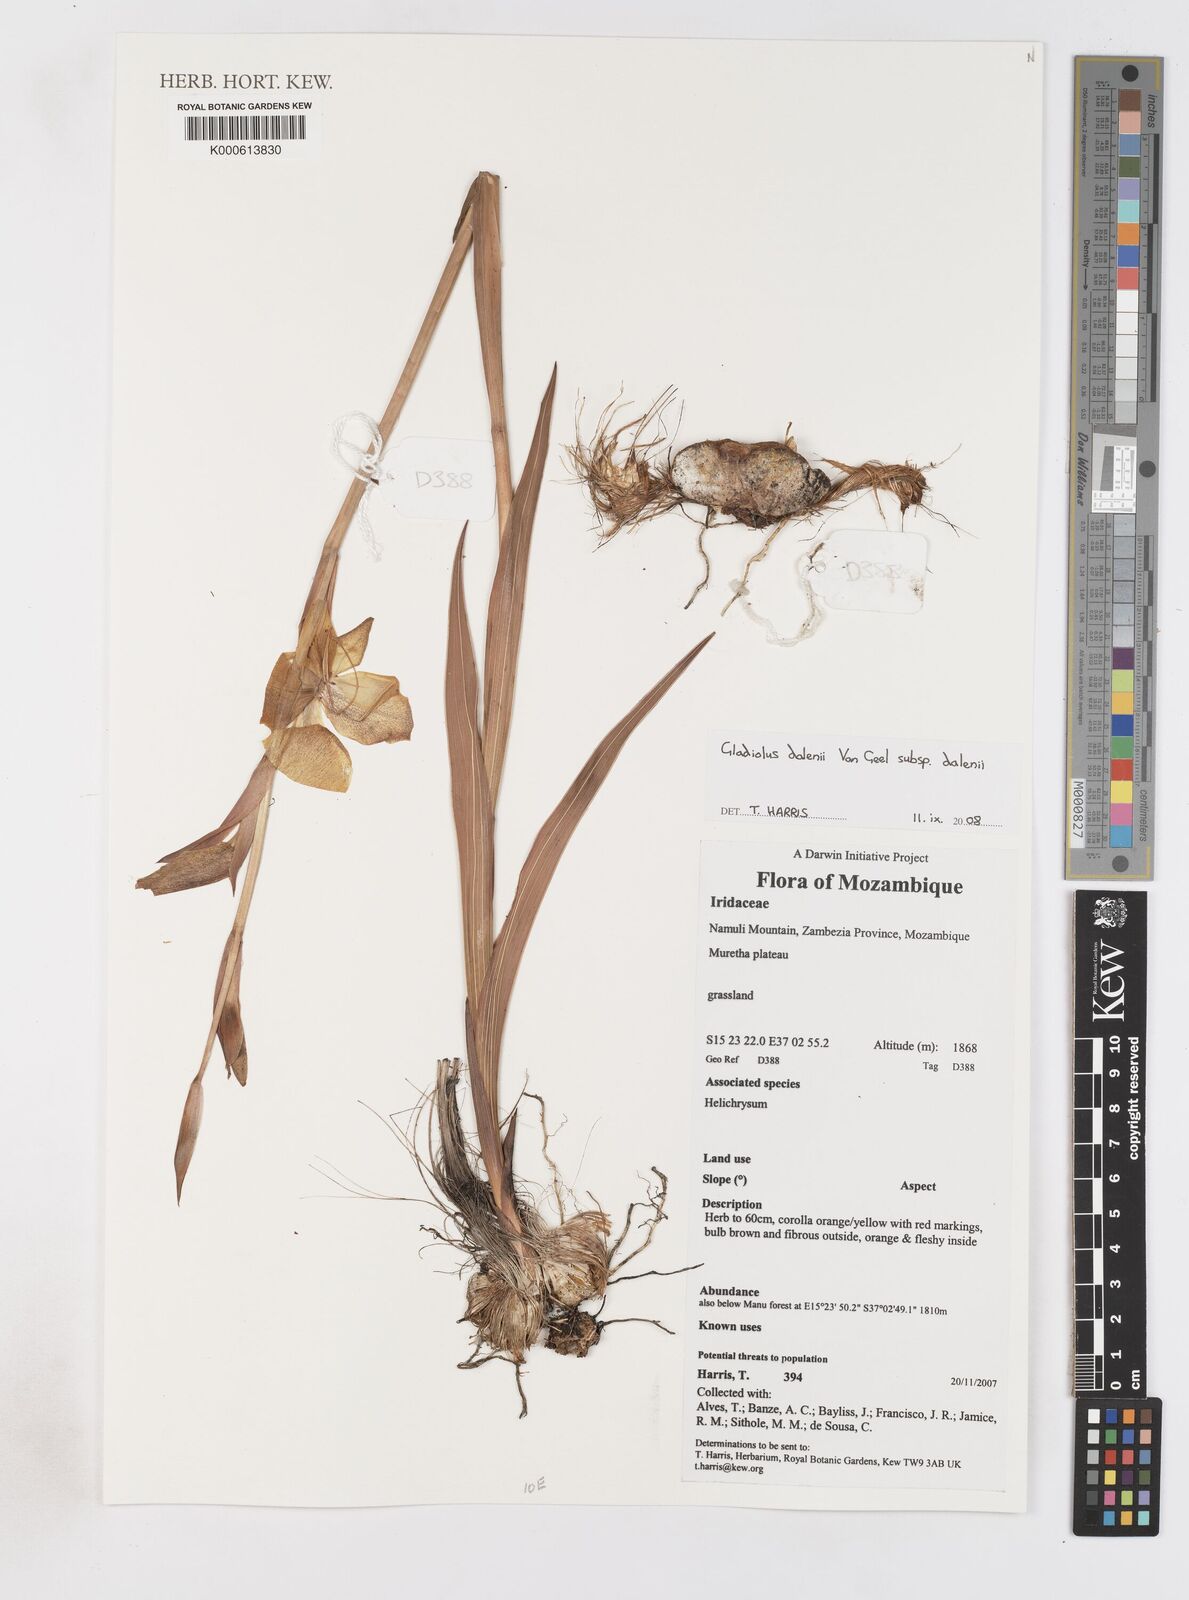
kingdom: Plantae
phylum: Tracheophyta
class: Liliopsida
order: Asparagales
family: Iridaceae
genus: Gladiolus
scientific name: Gladiolus dalenii
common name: Cornflag
